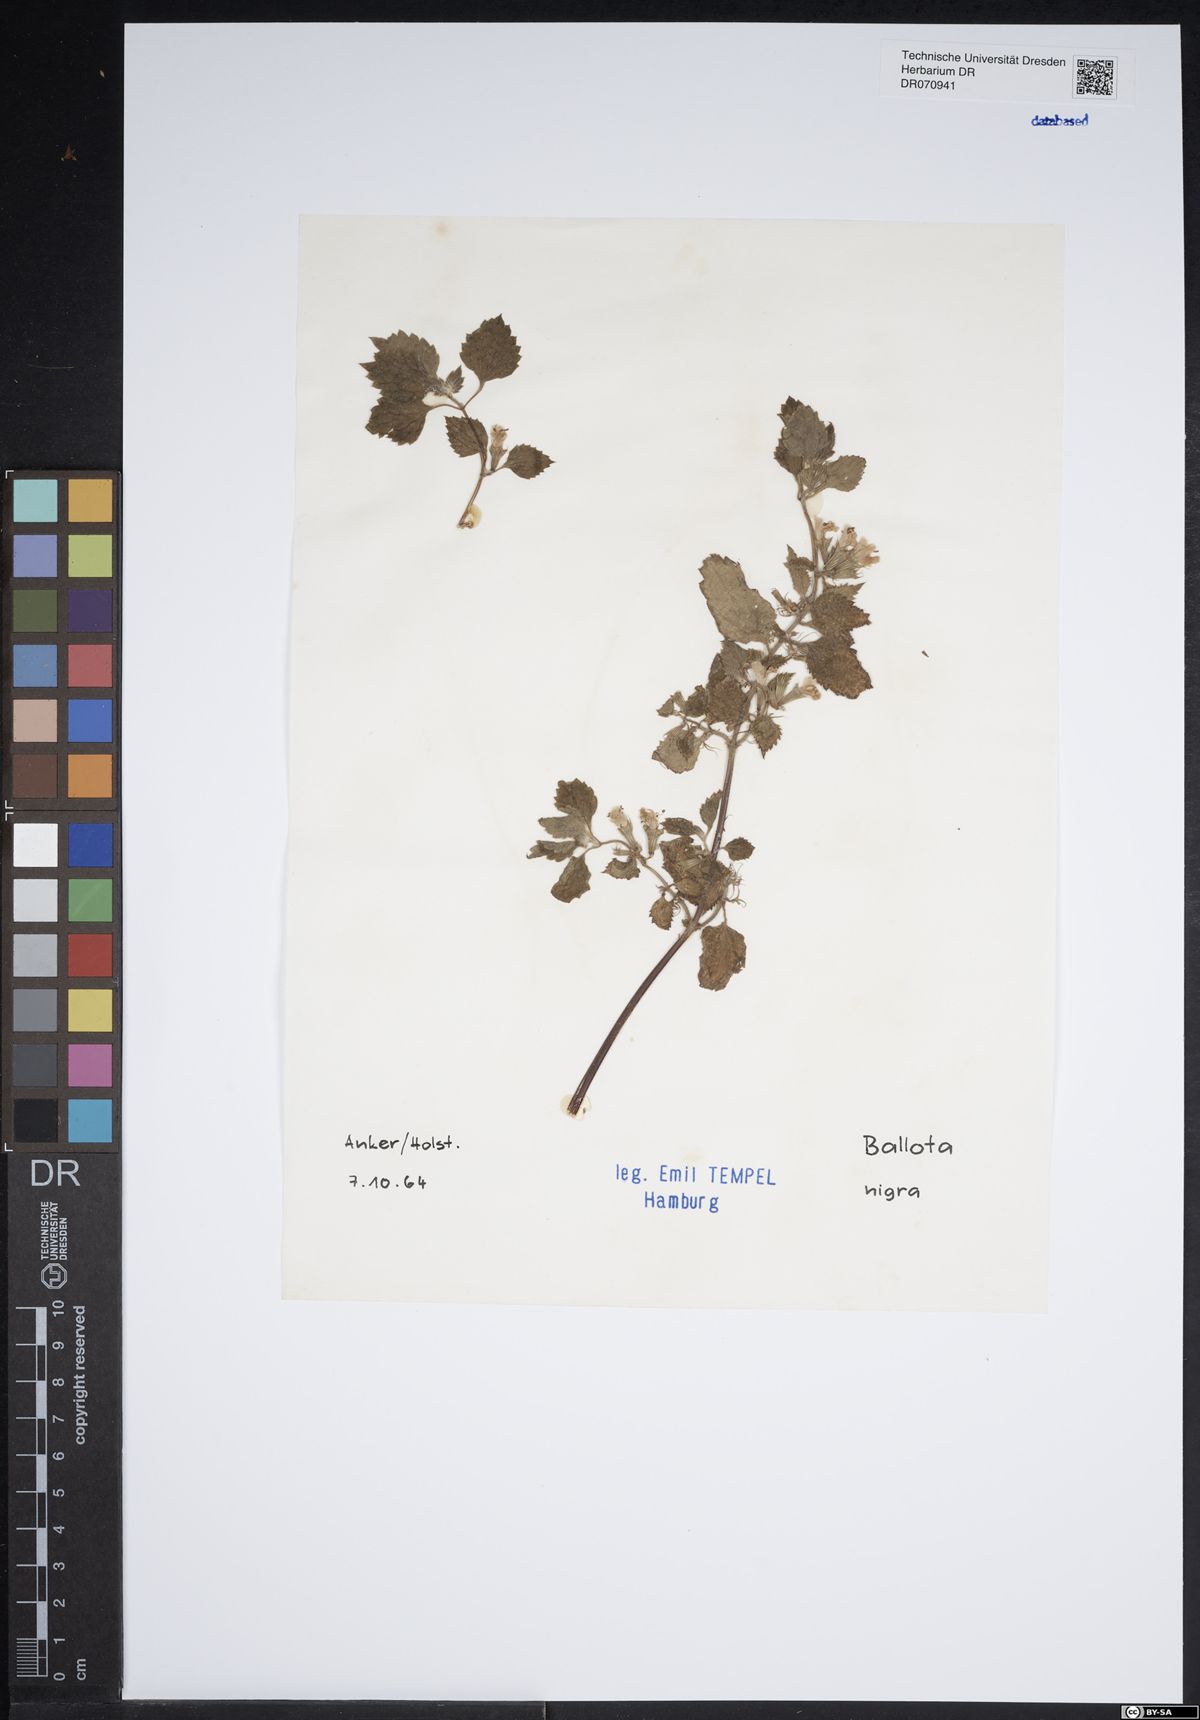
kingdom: Plantae
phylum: Tracheophyta
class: Magnoliopsida
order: Lamiales
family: Lamiaceae
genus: Ballota
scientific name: Ballota nigra
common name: Black horehound
